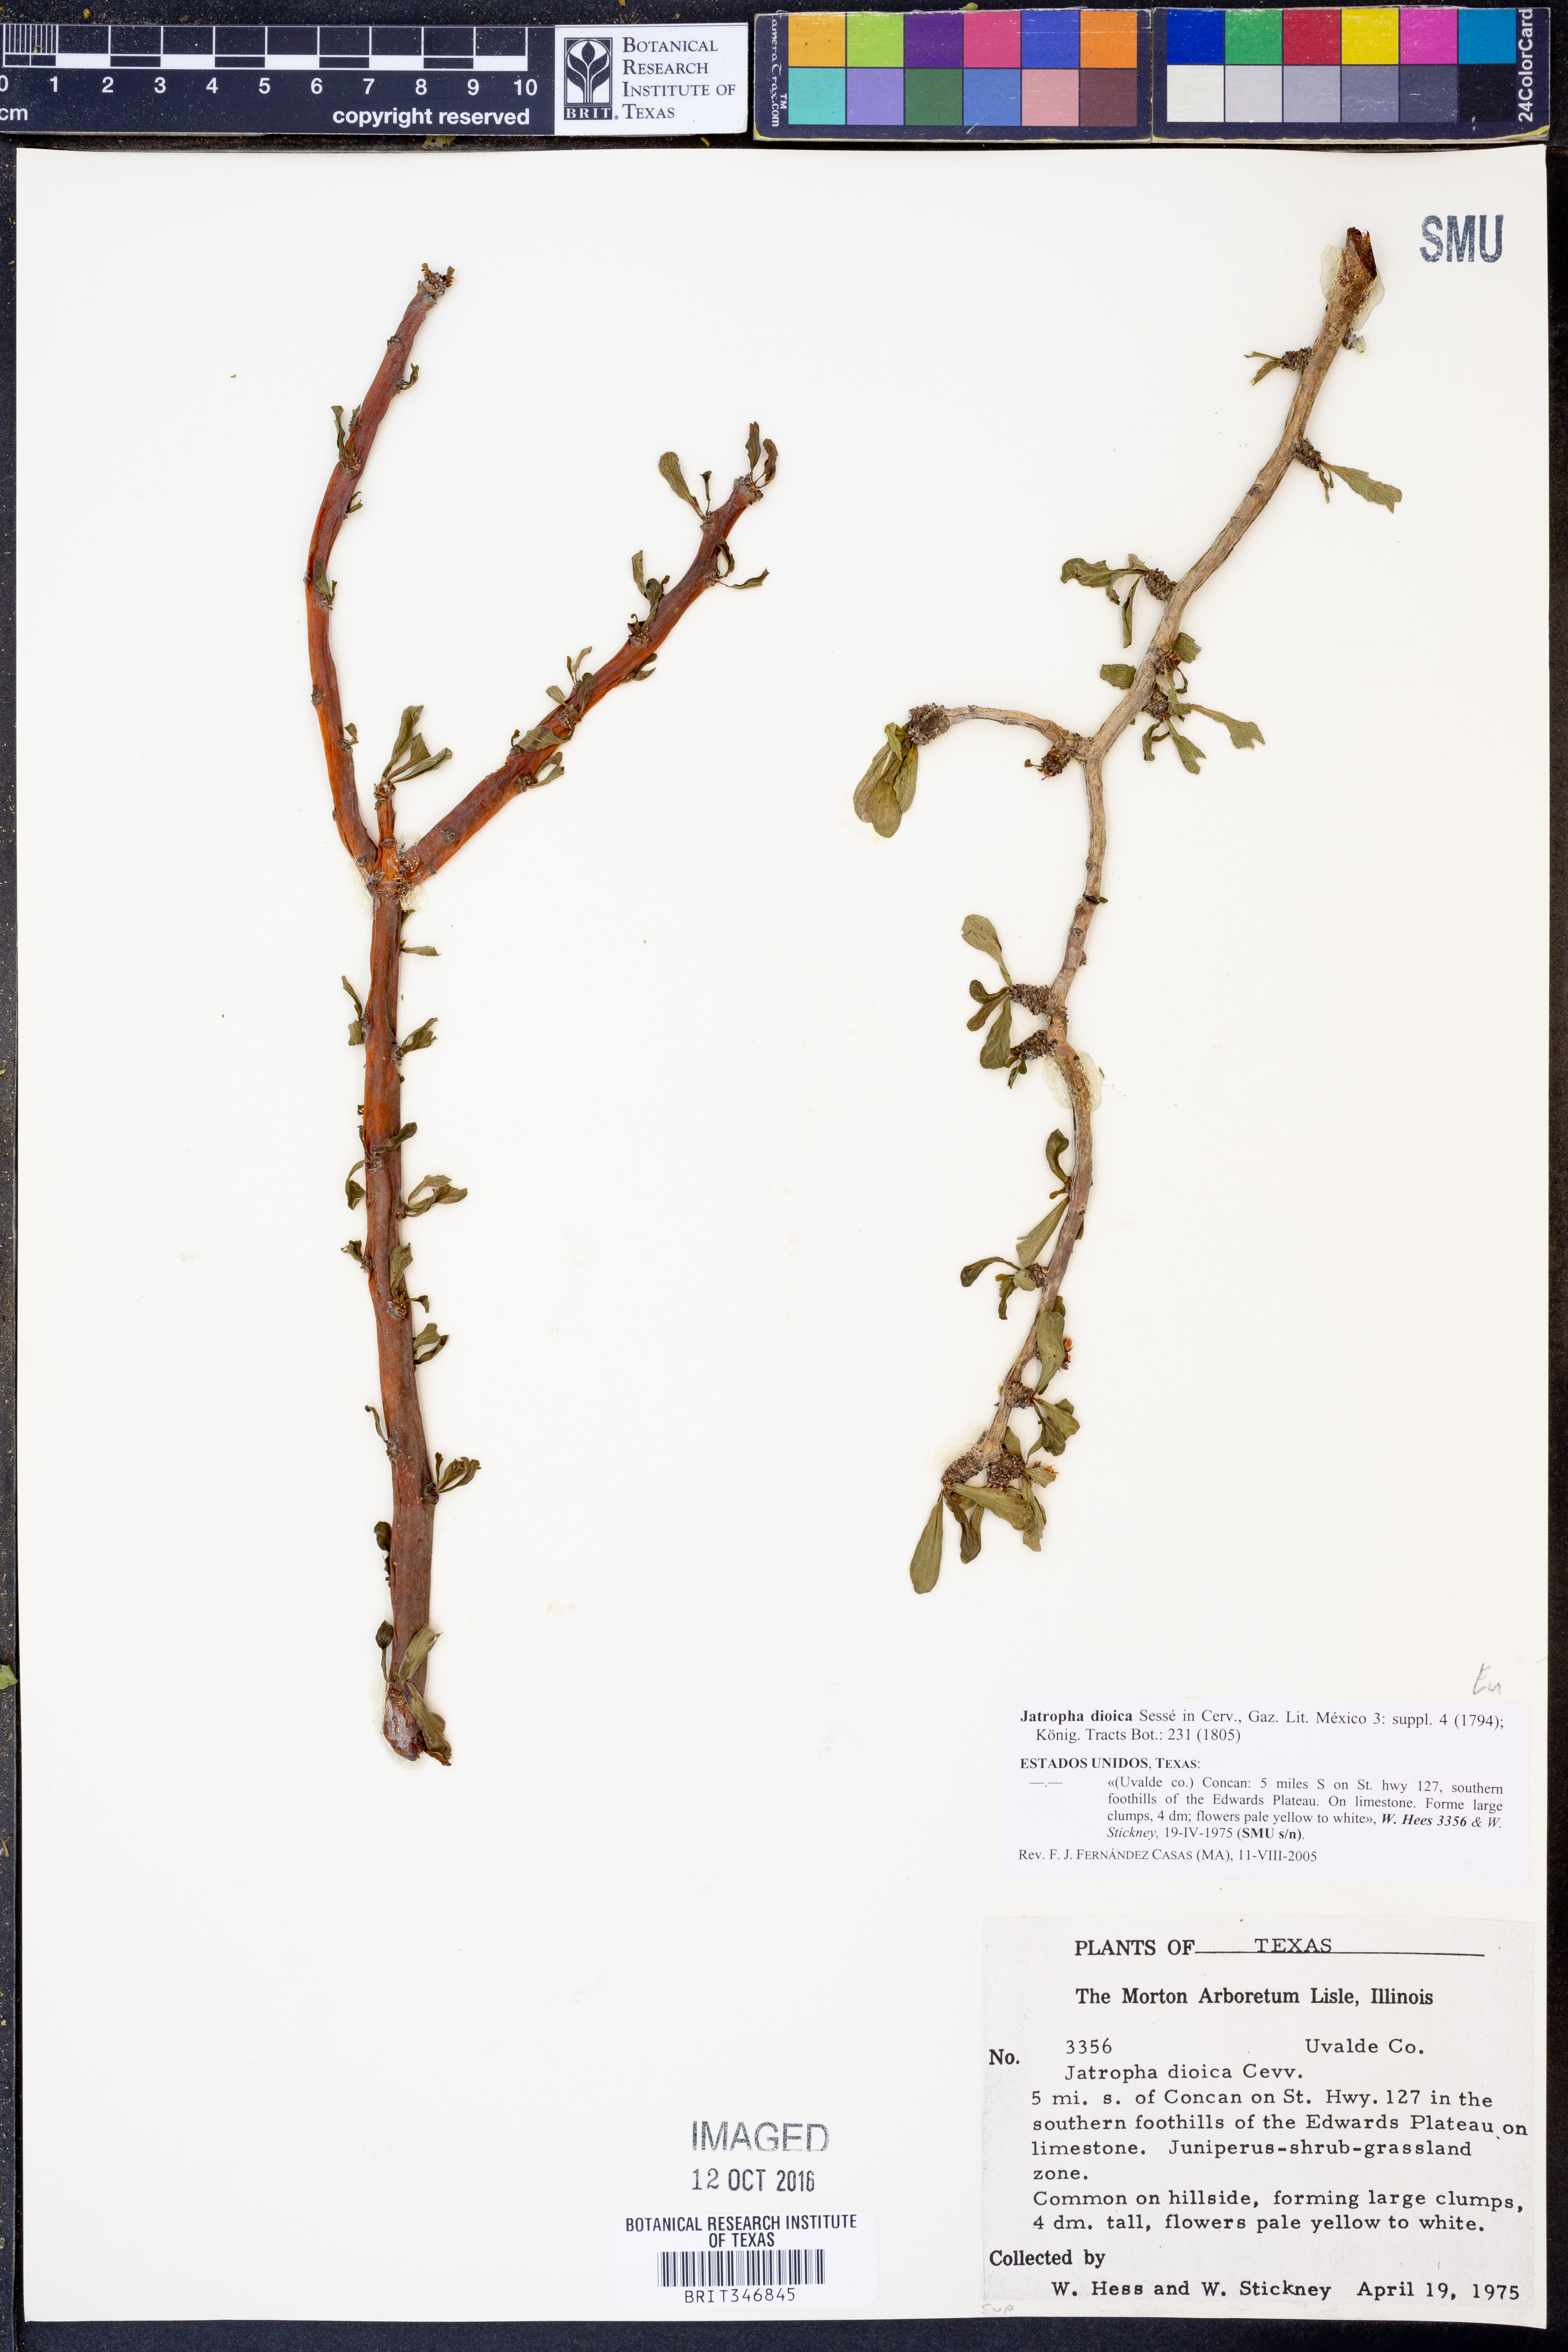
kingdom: Plantae
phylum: Tracheophyta
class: Magnoliopsida
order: Malpighiales
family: Euphorbiaceae
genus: Jatropha
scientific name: Jatropha dioica
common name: Leatherstem
